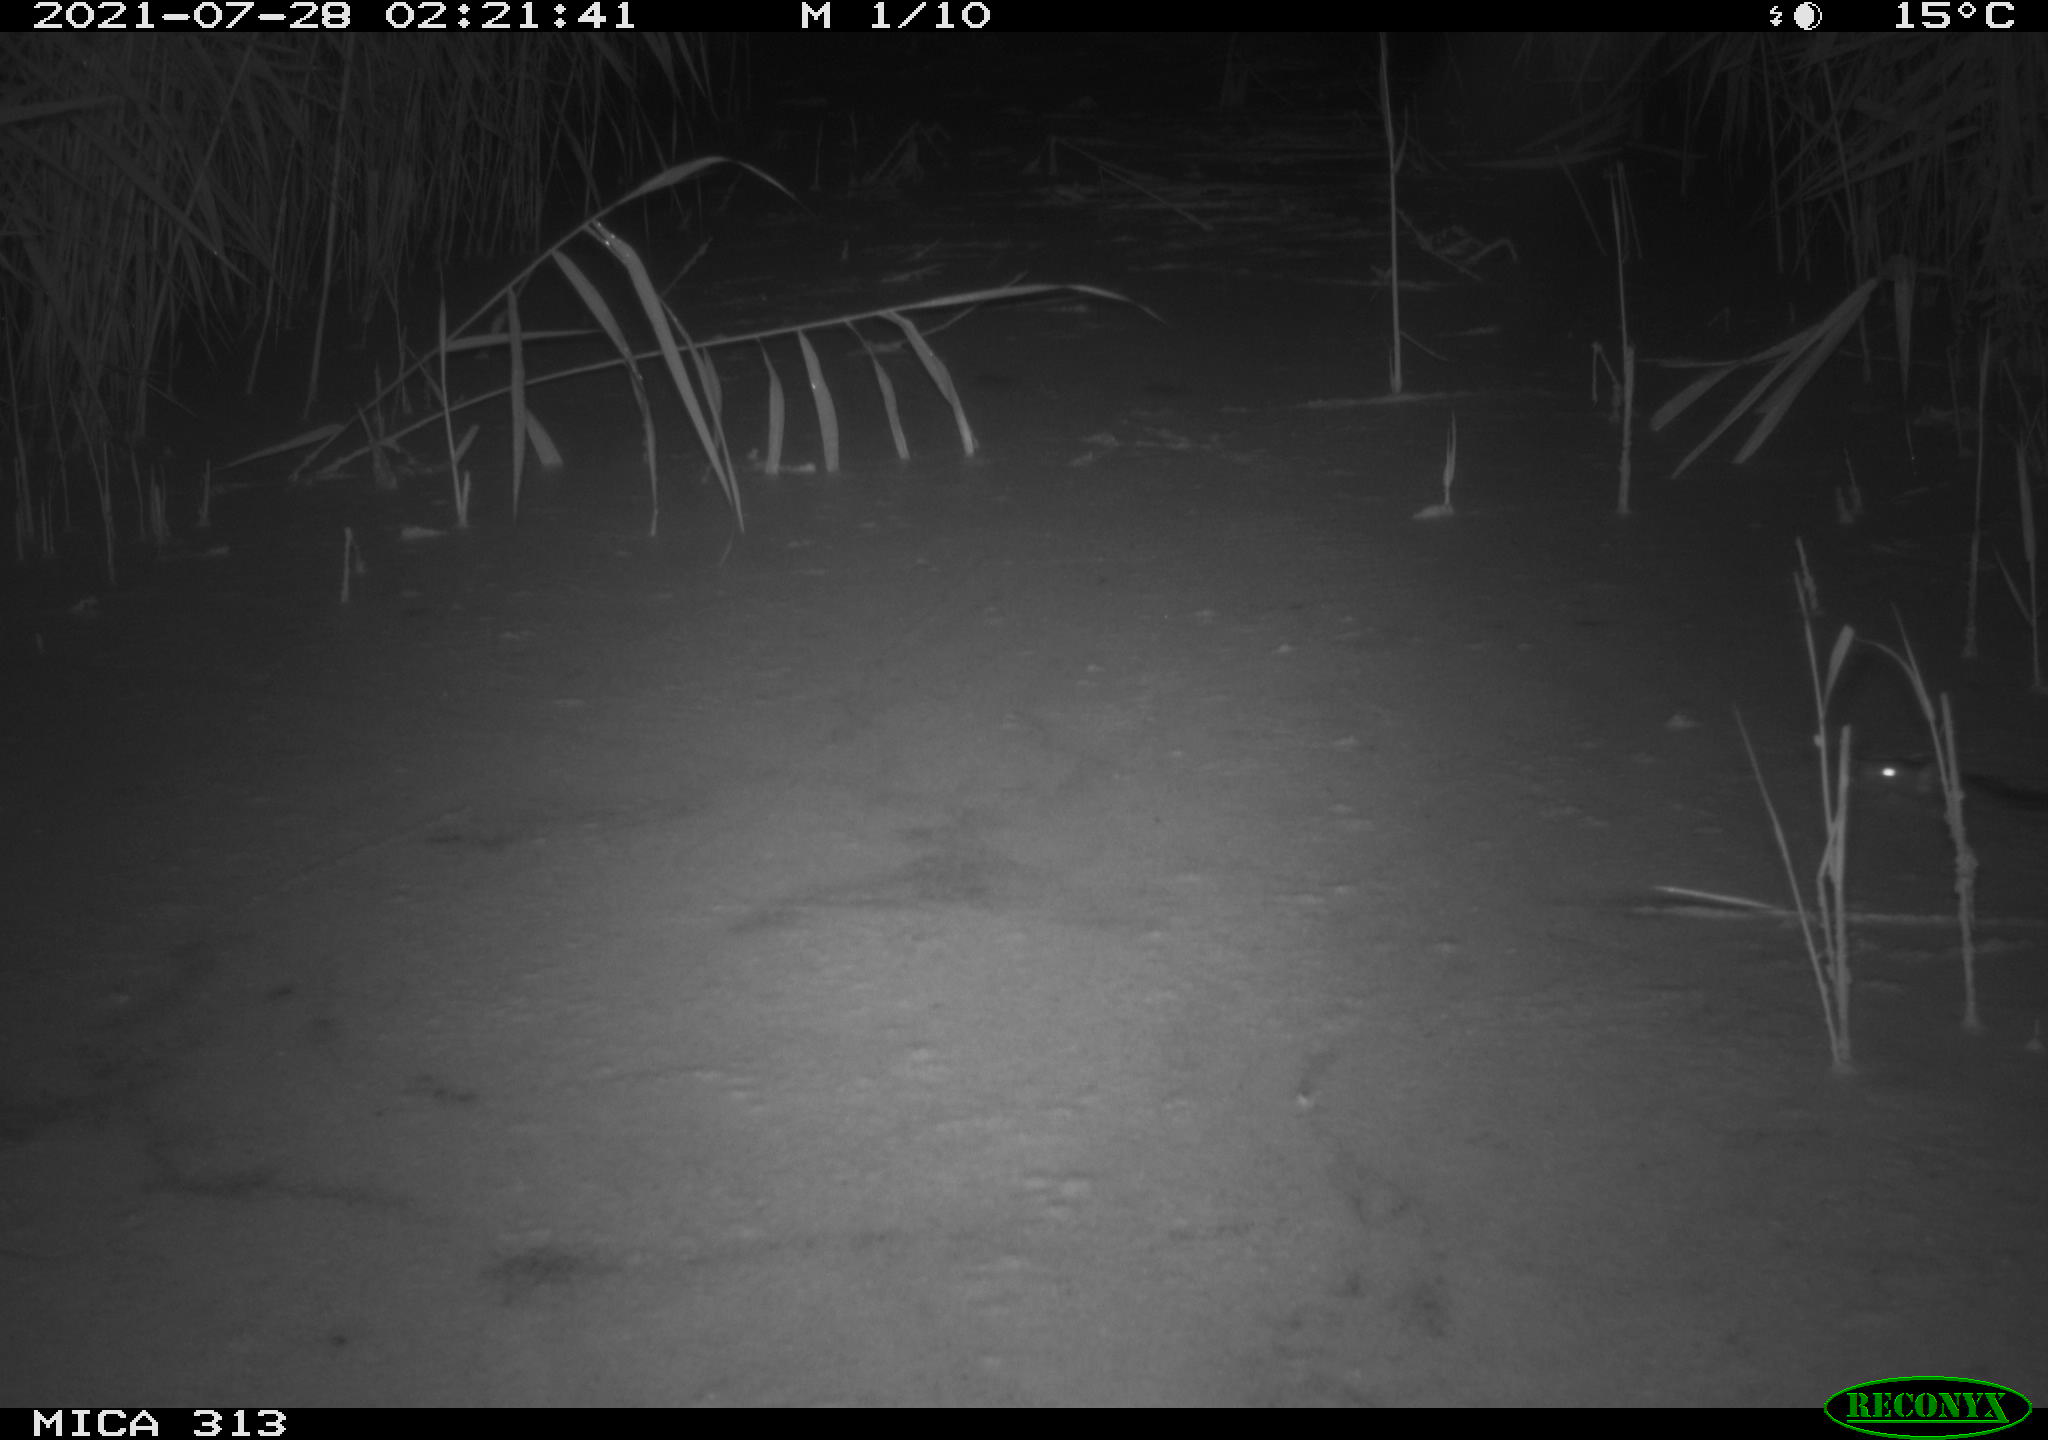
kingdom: Animalia
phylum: Chordata
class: Mammalia
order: Rodentia
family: Muridae
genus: Rattus
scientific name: Rattus norvegicus
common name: Brown rat
